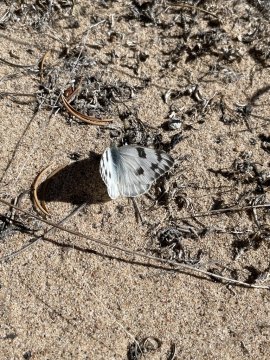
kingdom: Animalia
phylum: Arthropoda
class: Insecta
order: Lepidoptera
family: Pieridae
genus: Pontia
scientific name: Pontia protodice
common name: Checkered White
